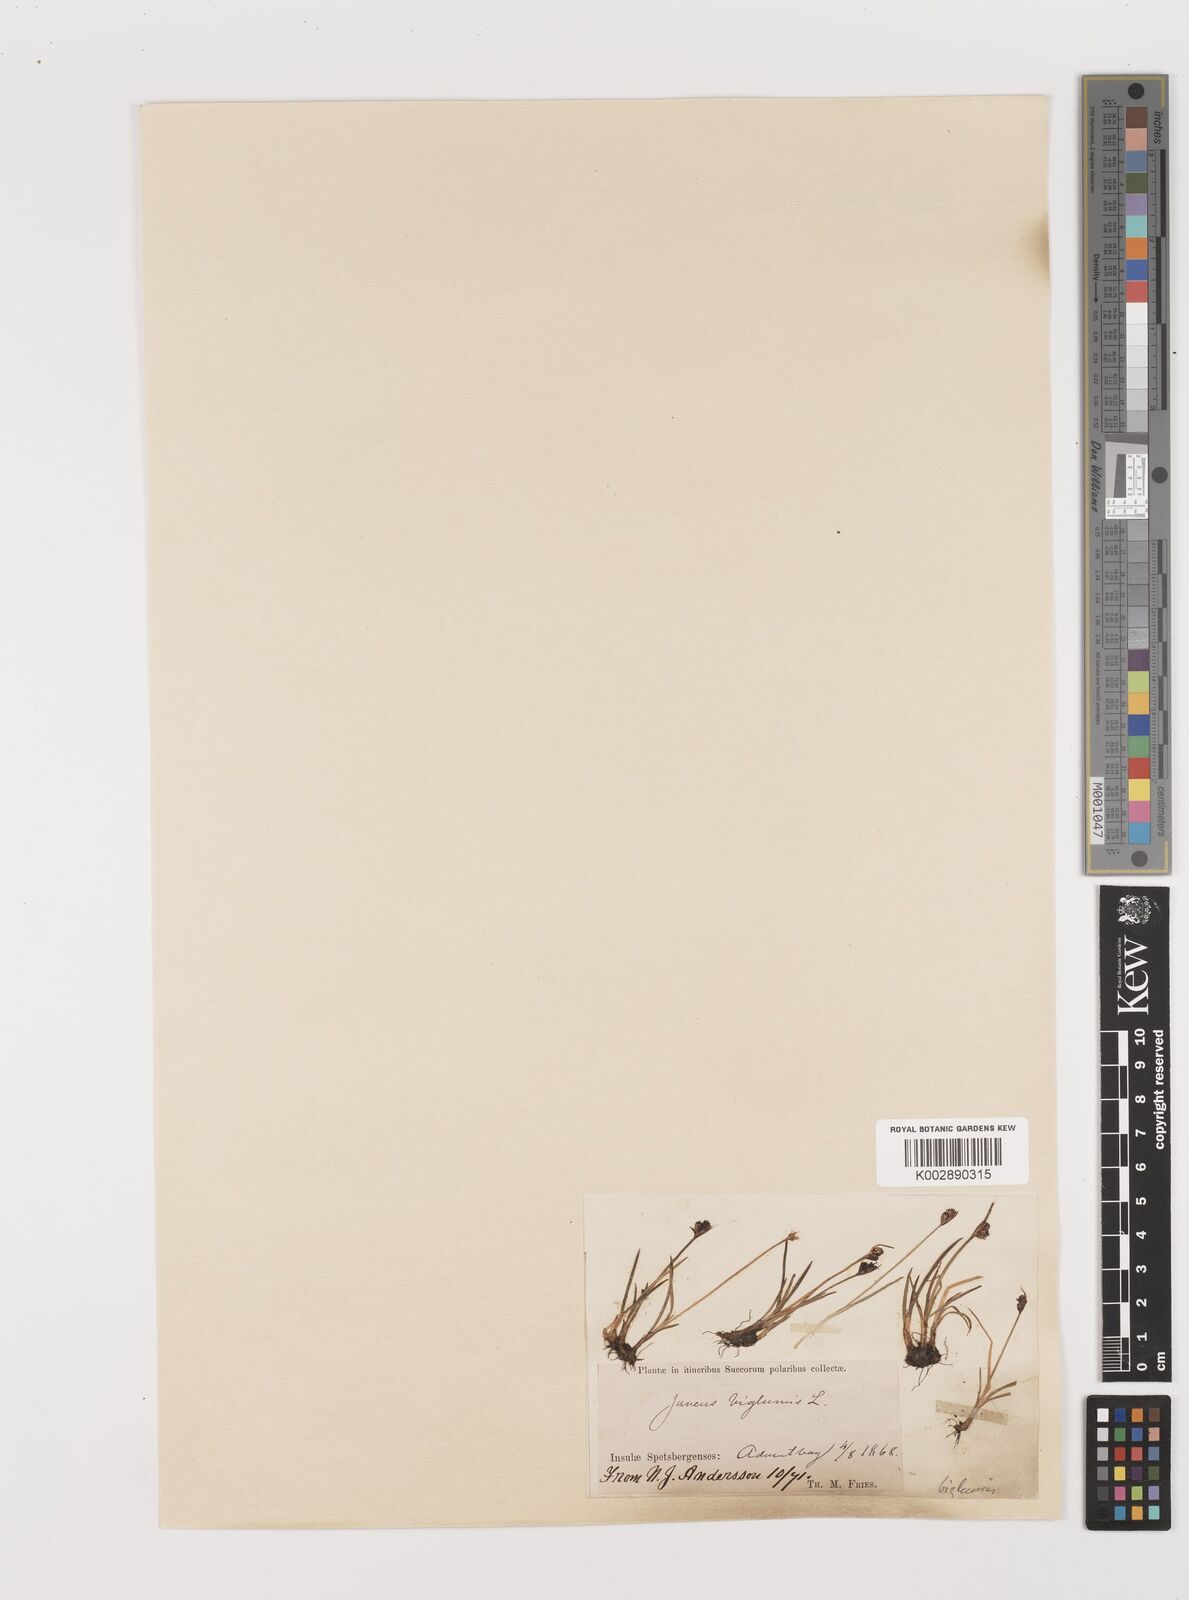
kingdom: Plantae
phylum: Tracheophyta
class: Liliopsida
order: Poales
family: Juncaceae
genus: Juncus
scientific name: Juncus biglumis
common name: Two-flowered rush
